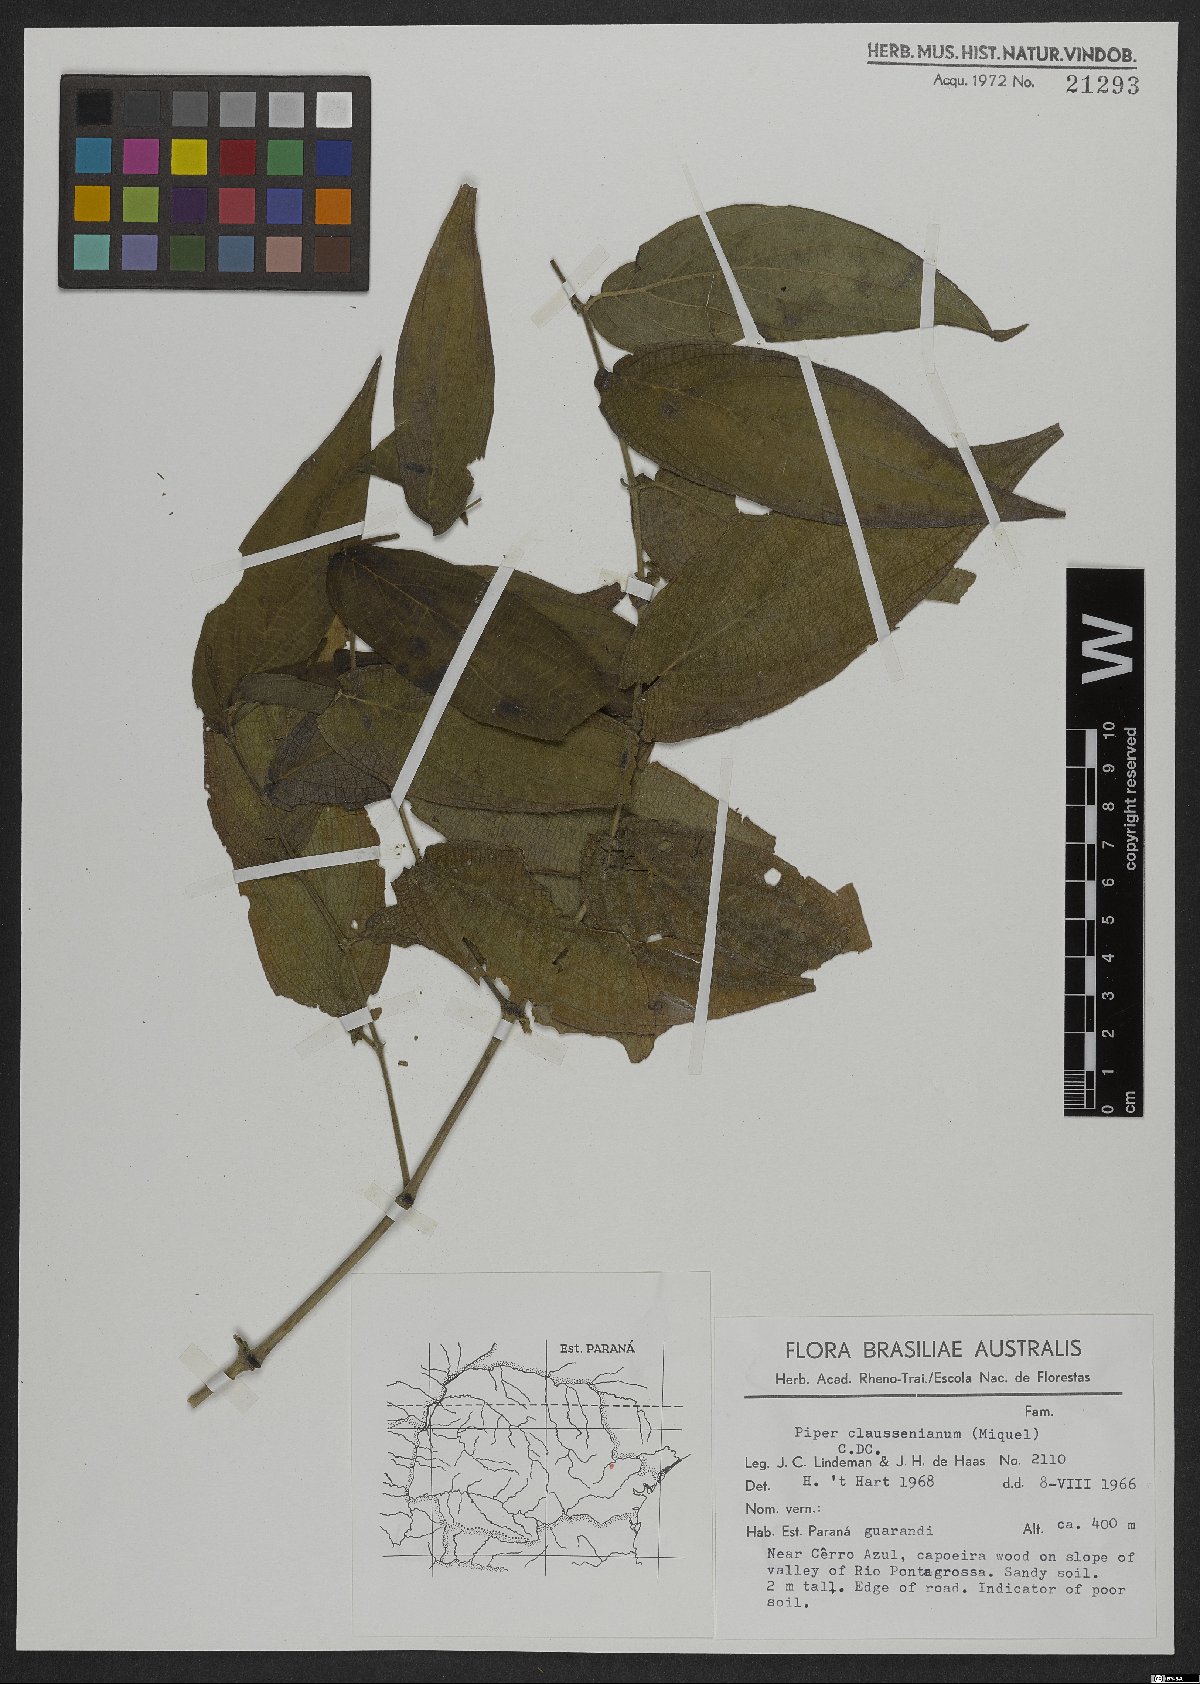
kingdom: Plantae
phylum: Tracheophyta
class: Magnoliopsida
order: Piperales
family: Piperaceae
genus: Piper
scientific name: Piper claussenianum
